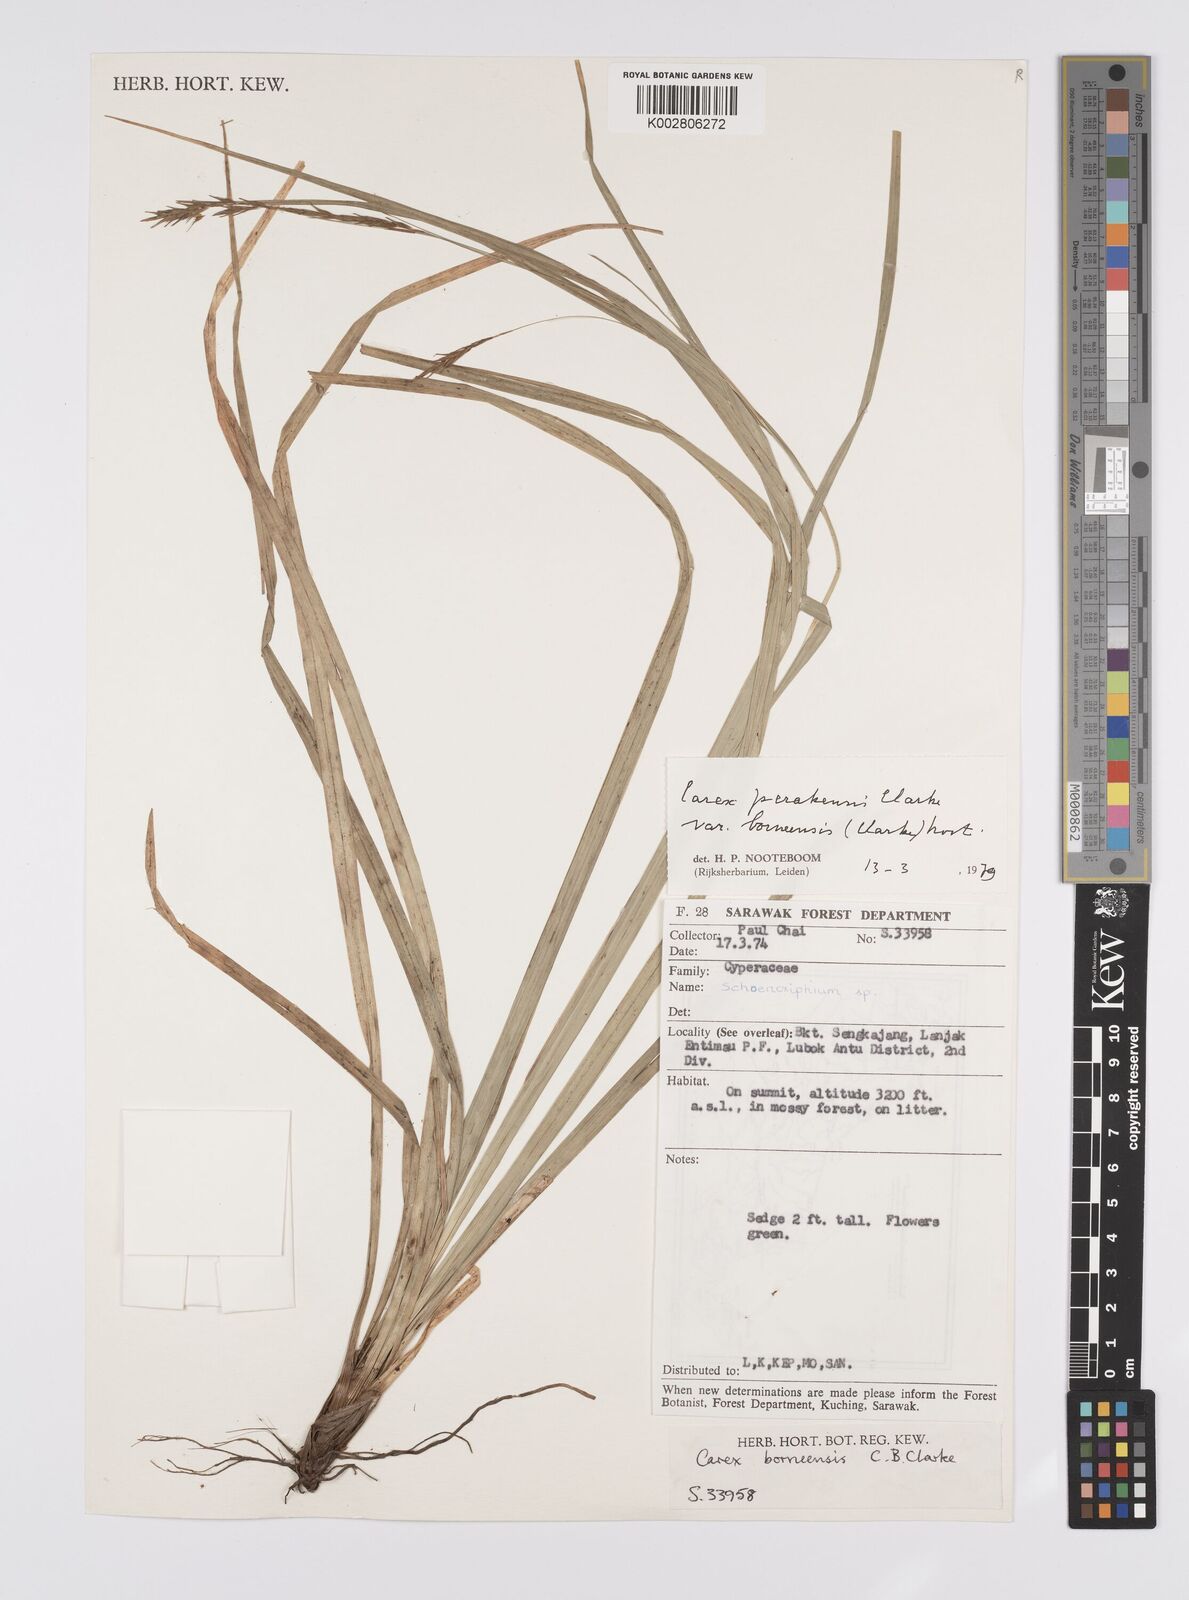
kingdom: Plantae
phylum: Tracheophyta
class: Liliopsida
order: Poales
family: Cyperaceae
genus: Carex
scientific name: Carex perakensis
